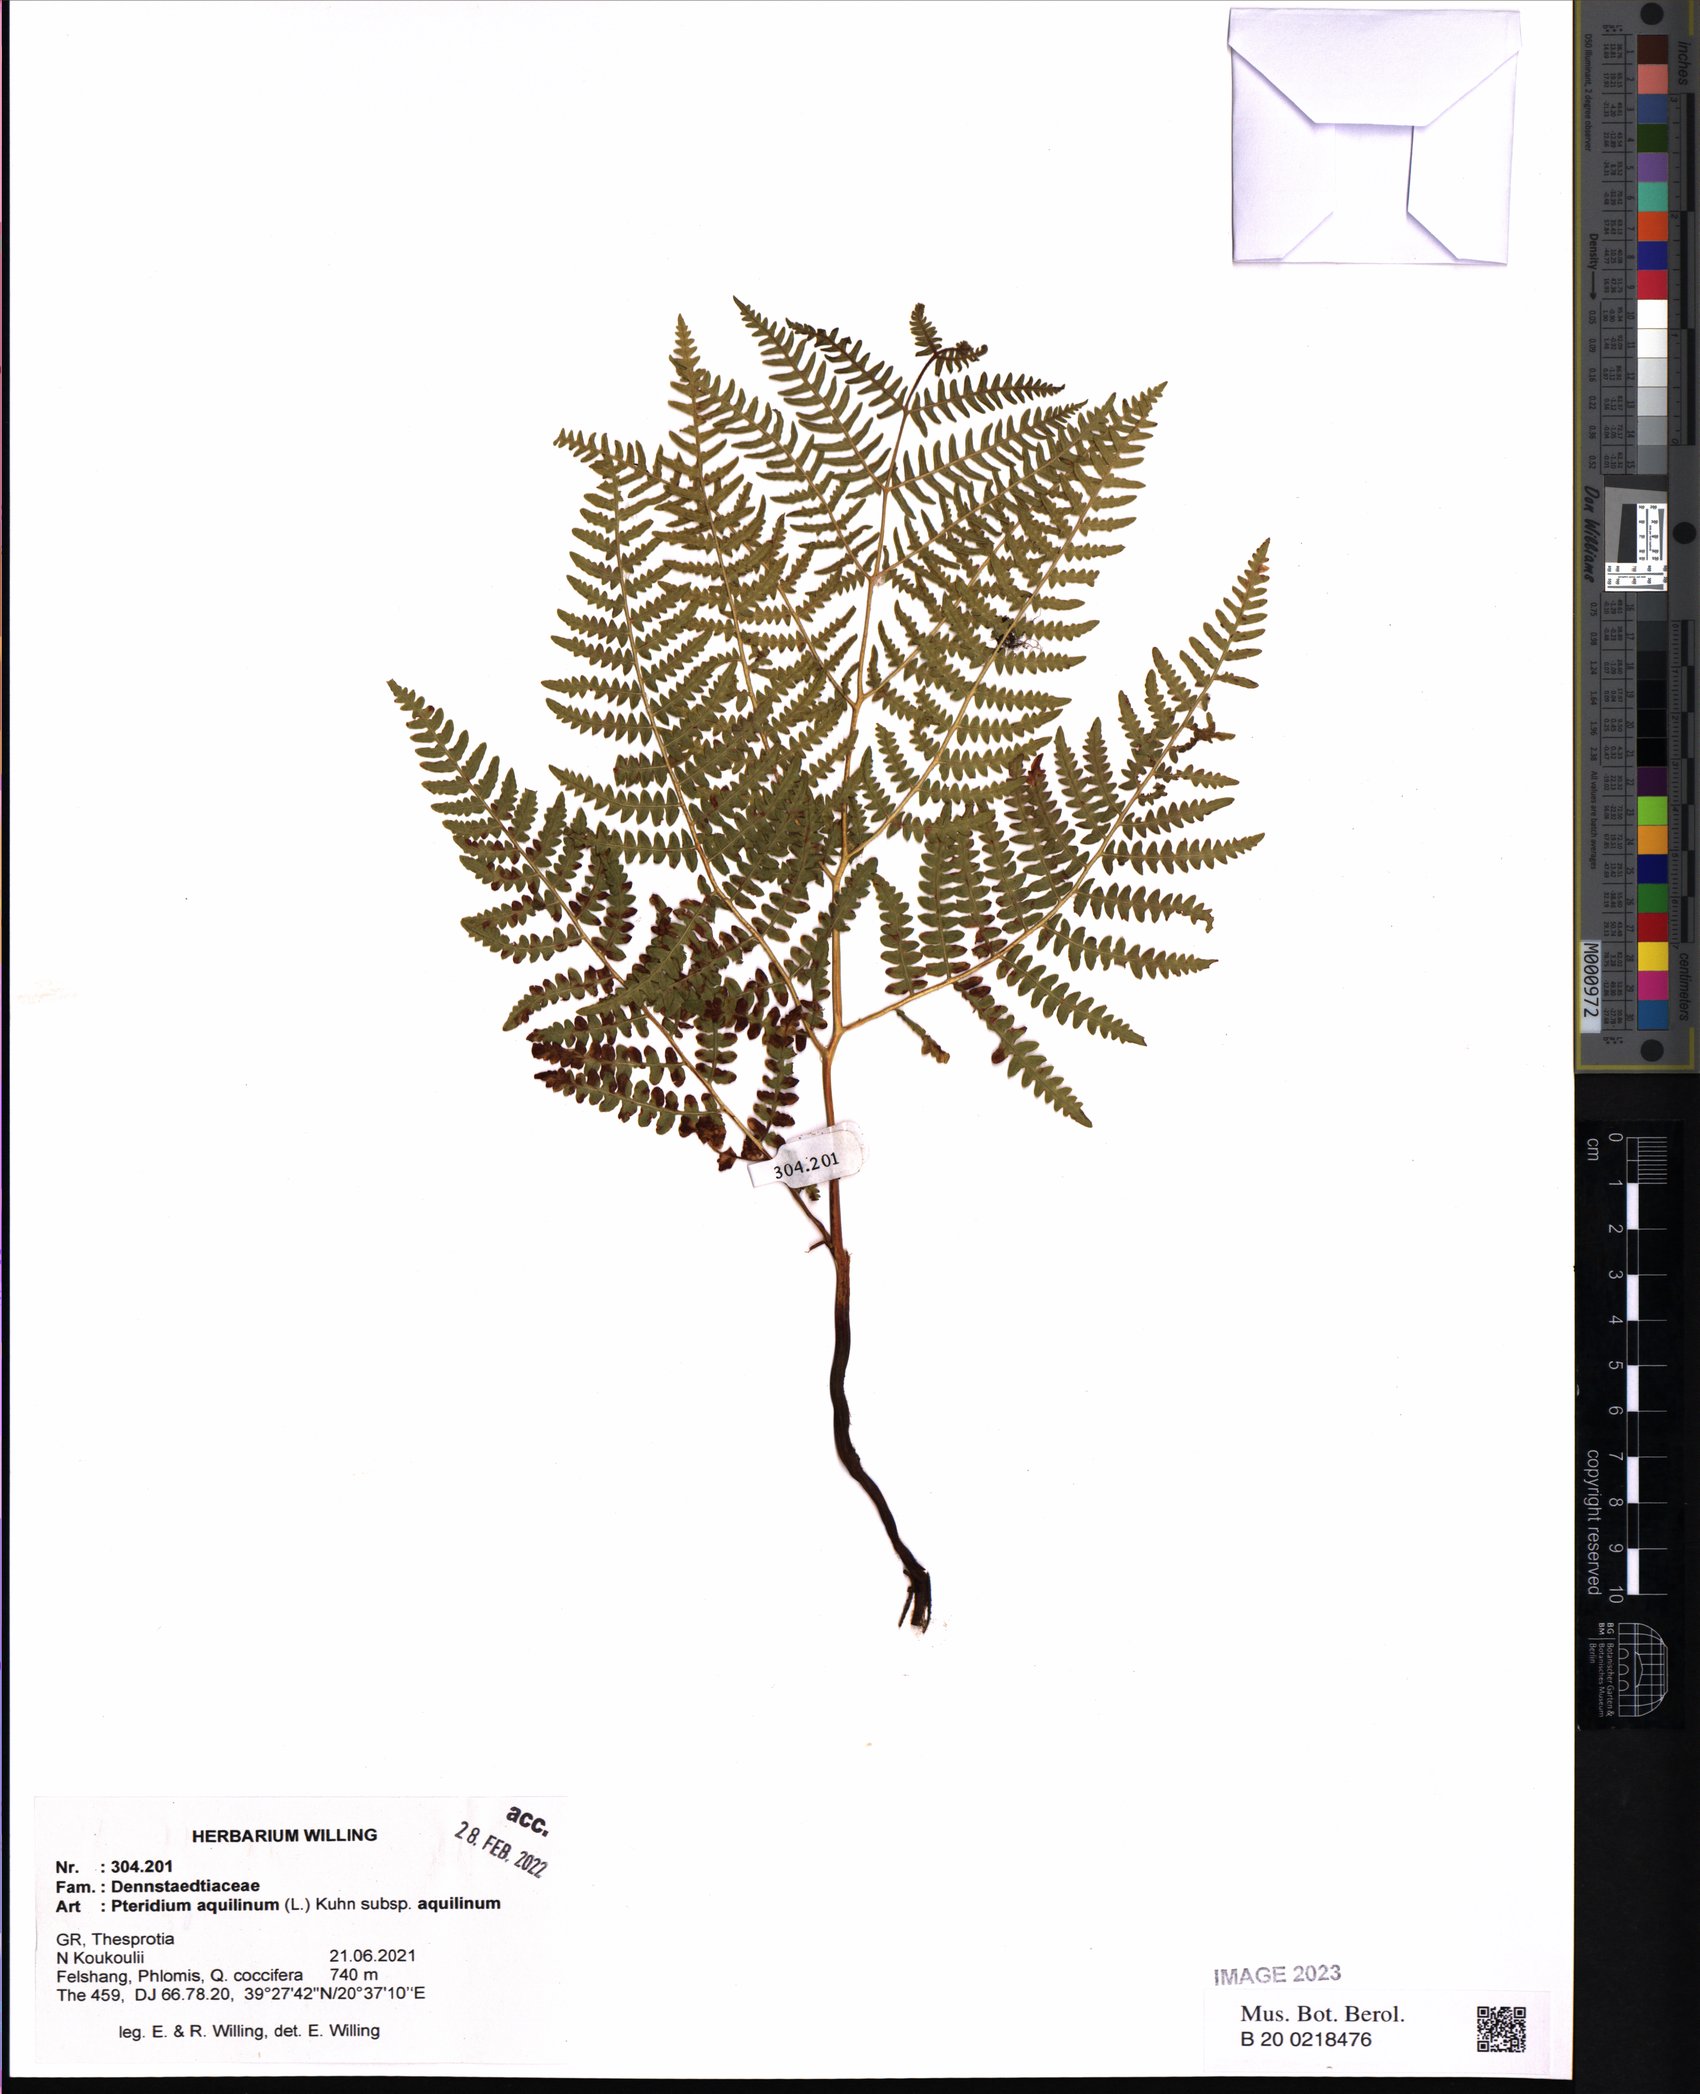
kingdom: Plantae
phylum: Tracheophyta
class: Polypodiopsida
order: Polypodiales
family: Dennstaedtiaceae
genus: Pteridium
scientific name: Pteridium aquilinum
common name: Bracken
